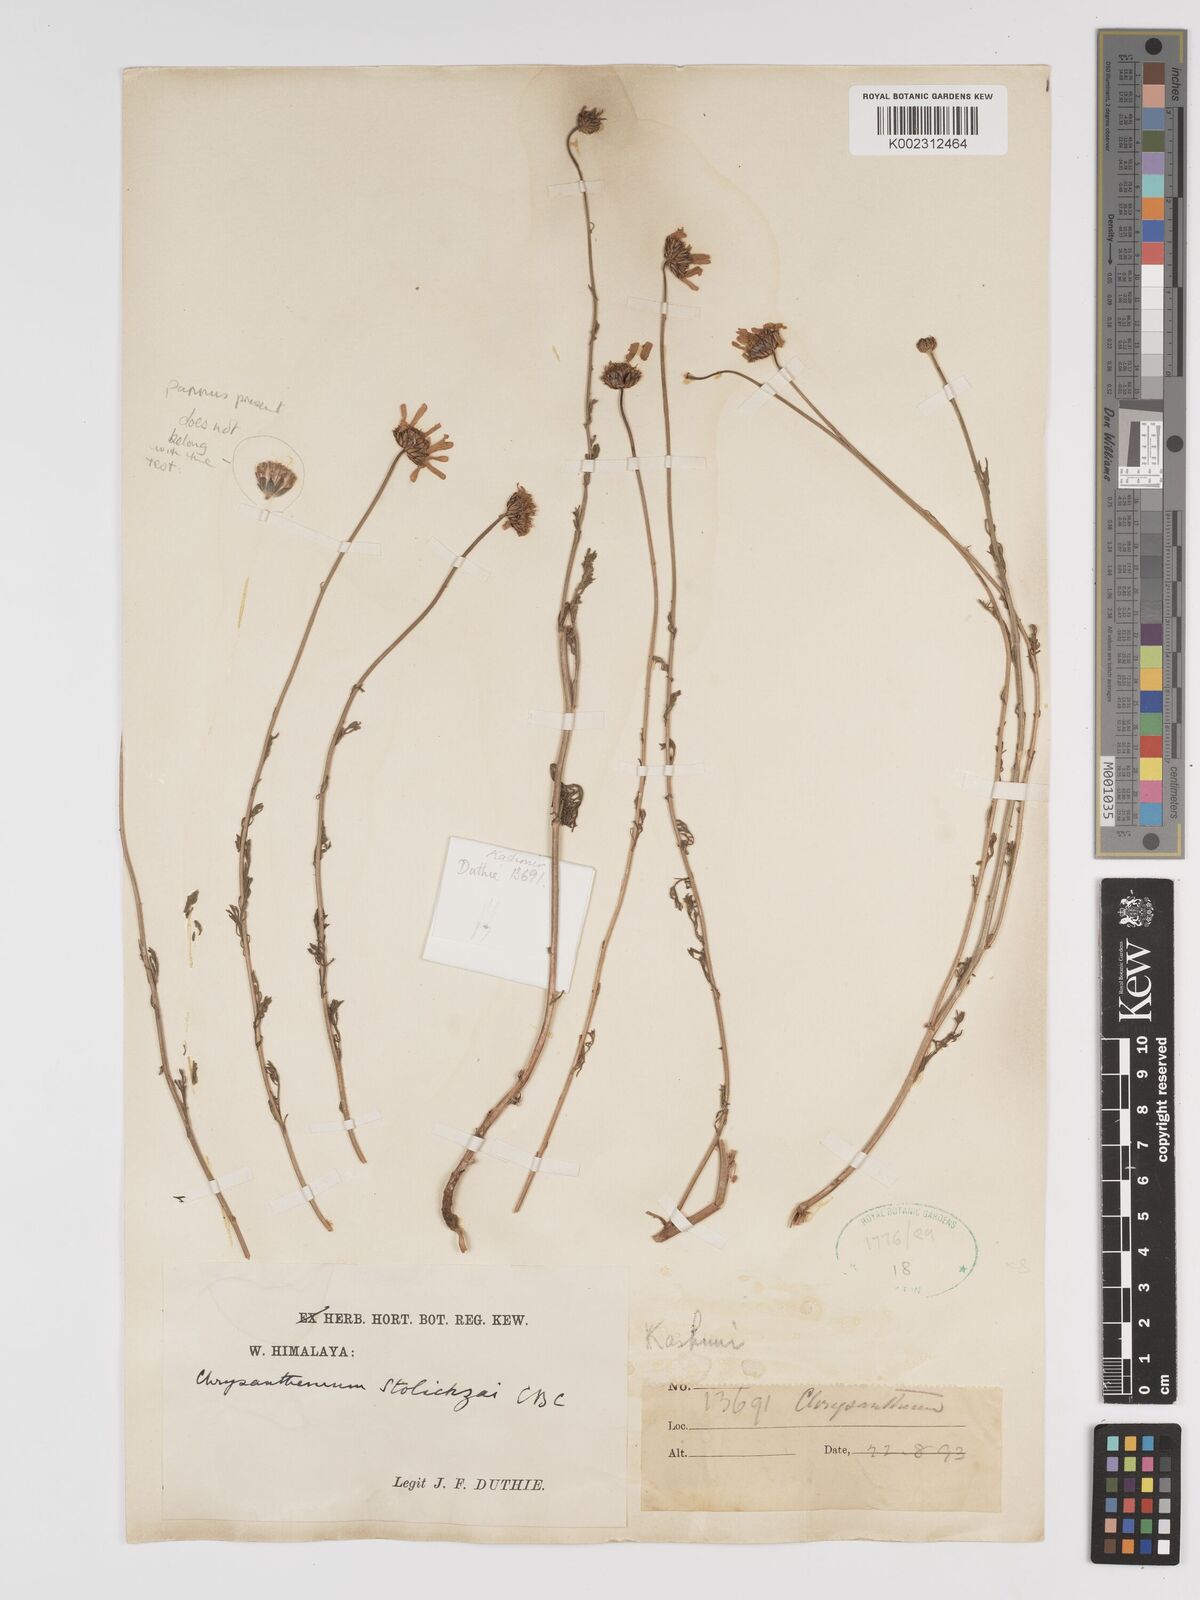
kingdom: Plantae
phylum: Tracheophyta
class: Magnoliopsida
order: Asterales
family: Asteraceae
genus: Tanacetum
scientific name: Tanacetum stoliczkae
